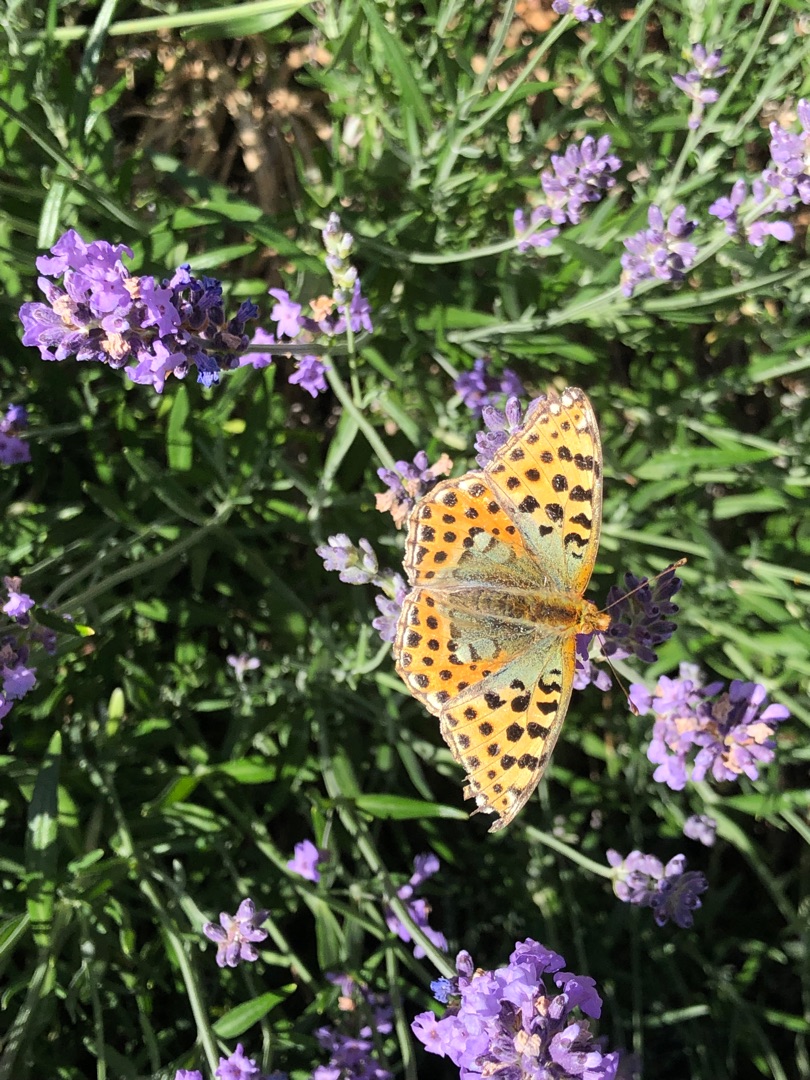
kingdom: Animalia
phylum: Arthropoda
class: Insecta
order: Lepidoptera
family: Nymphalidae
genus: Issoria
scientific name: Issoria lathonia
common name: Storplettet perlemorsommerfugl
